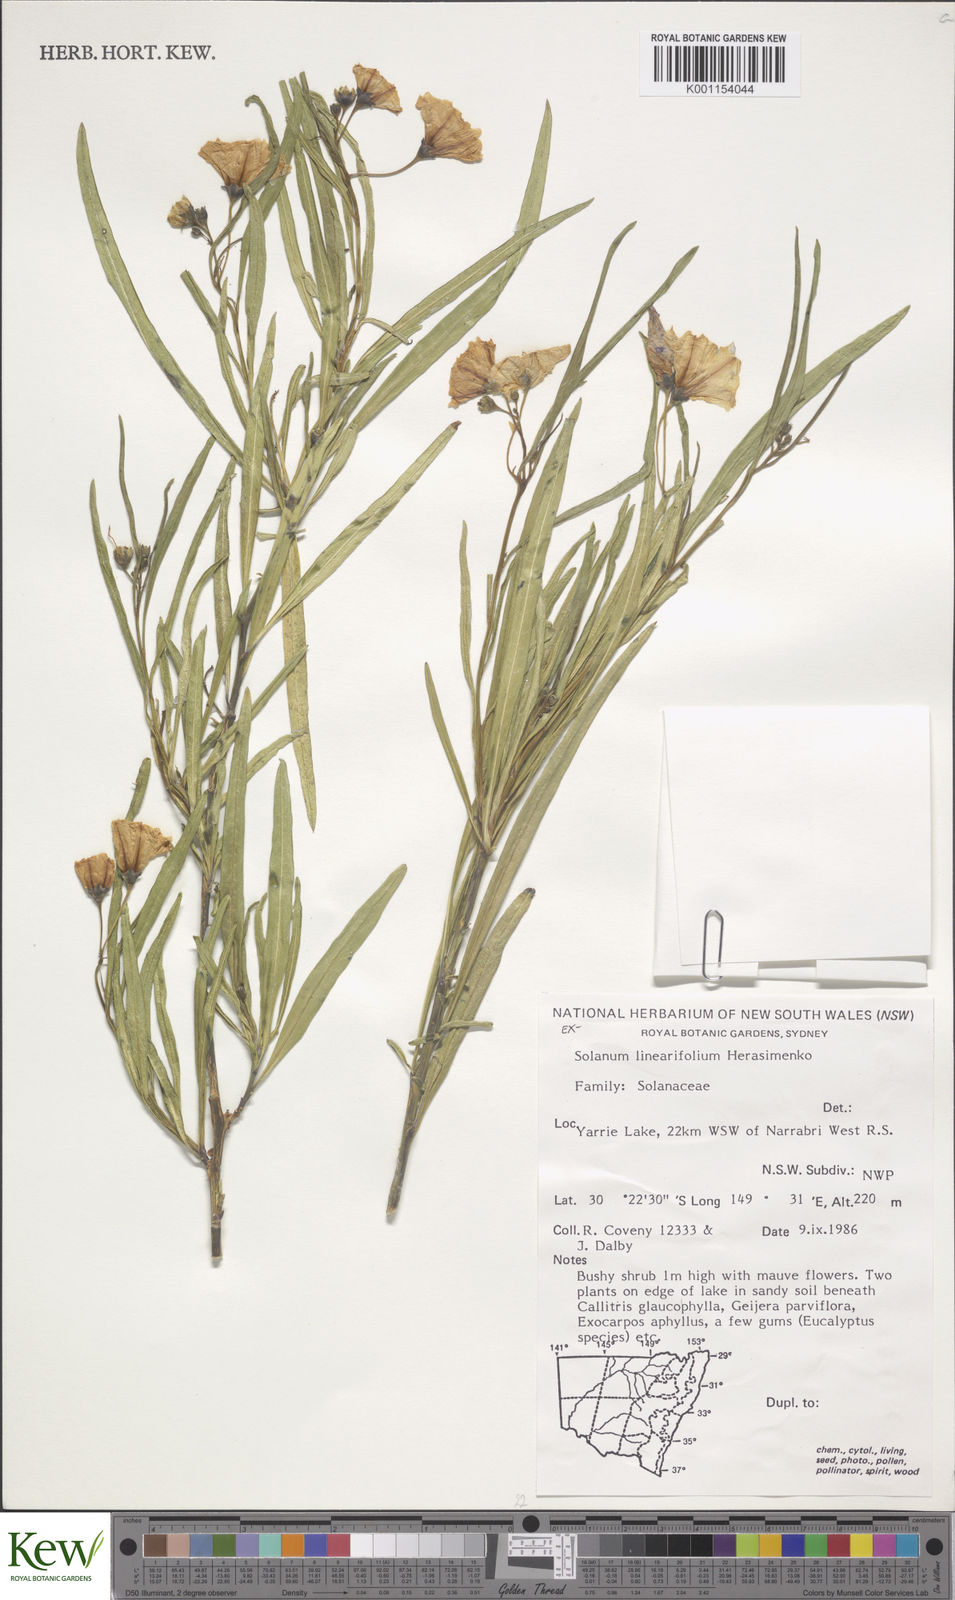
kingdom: Plantae
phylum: Tracheophyta
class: Magnoliopsida
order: Solanales
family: Solanaceae
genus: Solanum
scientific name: Solanum linearifolium
